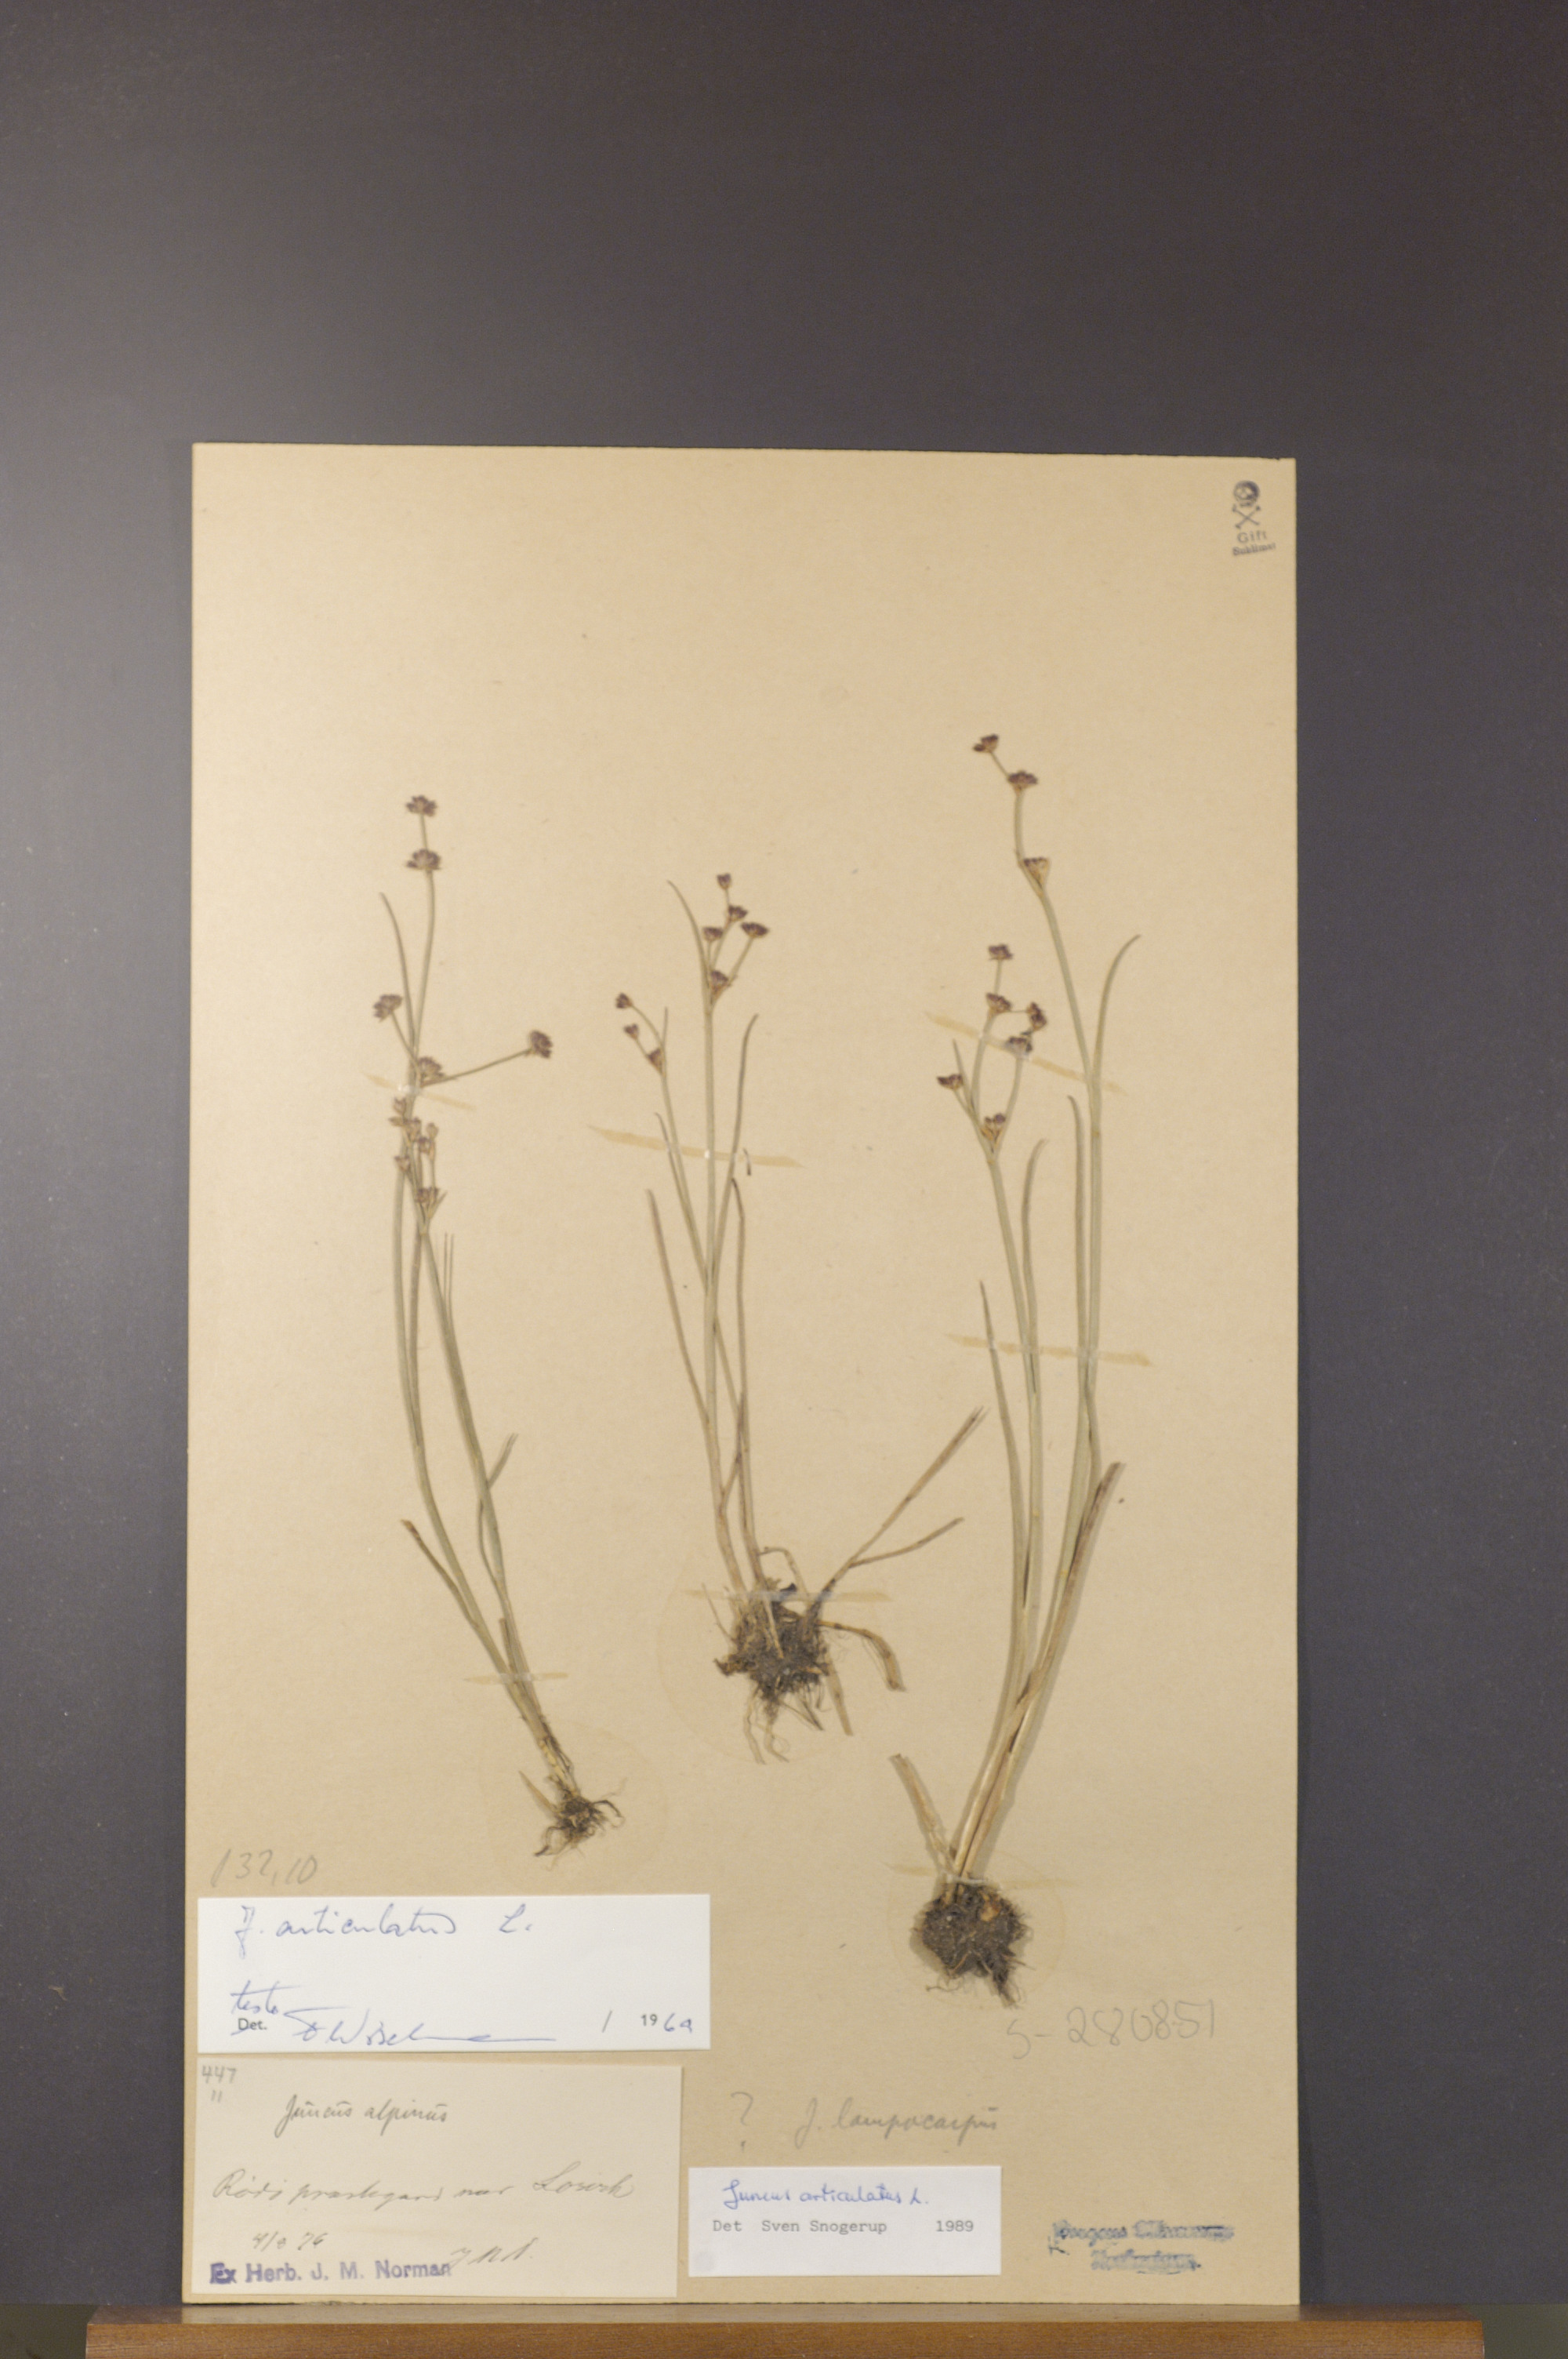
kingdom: Plantae
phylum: Tracheophyta
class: Liliopsida
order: Poales
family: Juncaceae
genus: Juncus
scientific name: Juncus articulatus
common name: Jointed rush
